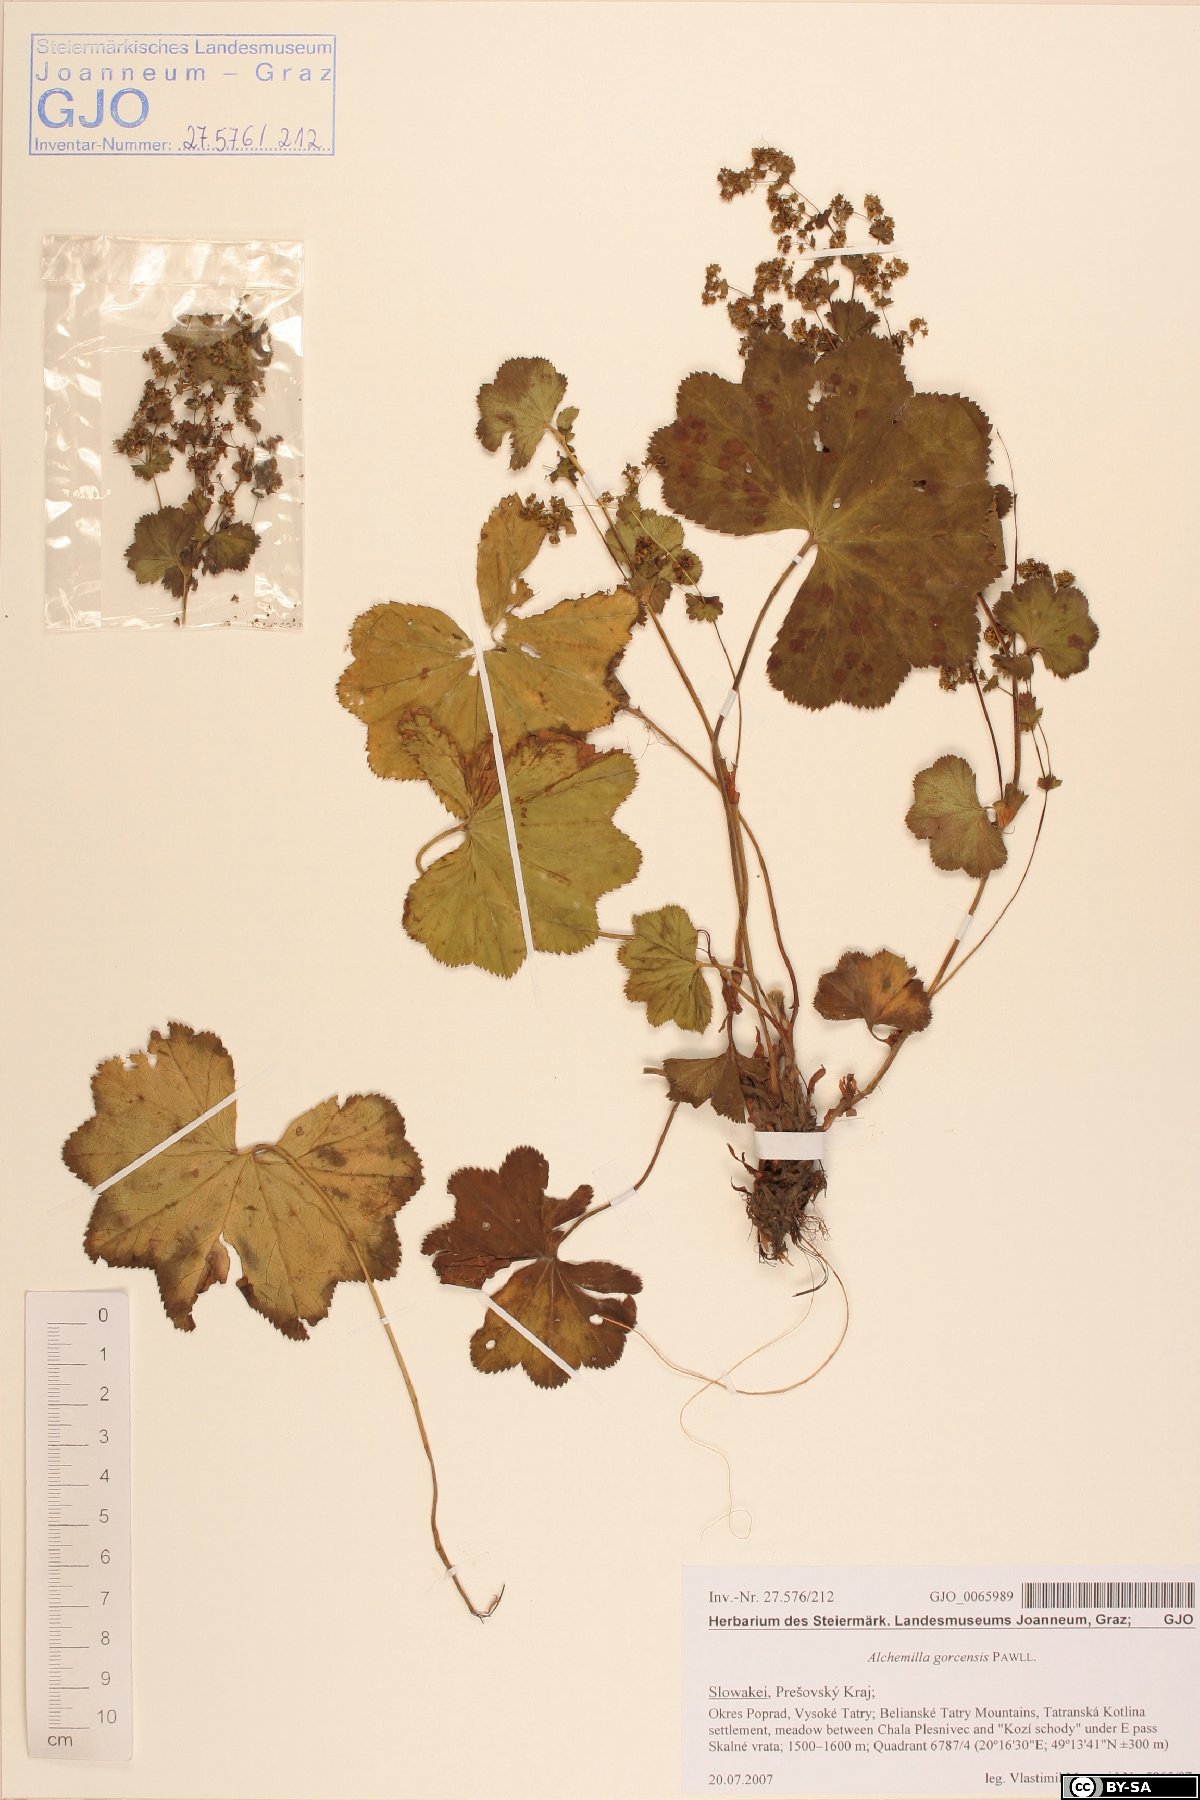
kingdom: Plantae
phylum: Tracheophyta
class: Magnoliopsida
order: Rosales
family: Rosaceae
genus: Alchemilla
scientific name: Alchemilla gorcensis
